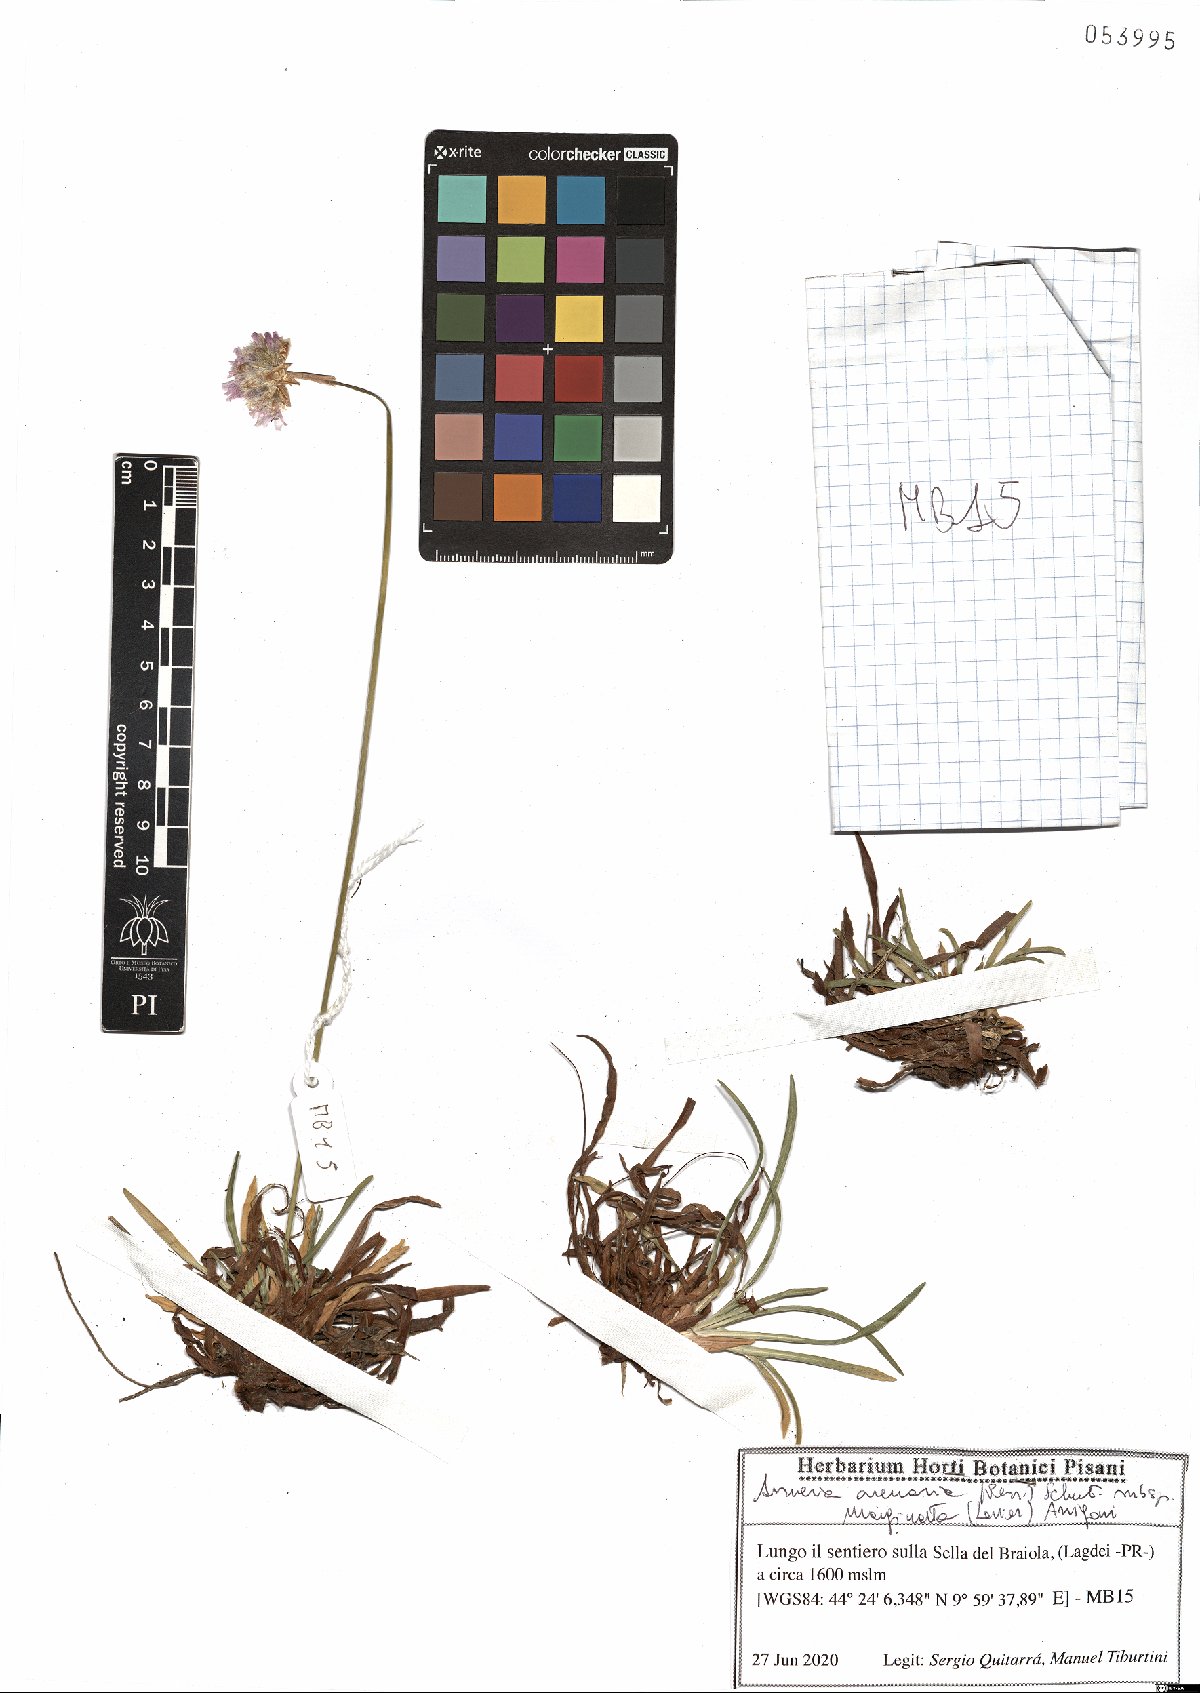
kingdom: Plantae
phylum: Tracheophyta
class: Magnoliopsida
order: Caryophyllales
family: Plumbaginaceae
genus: Armeria
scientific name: Armeria arenaria
